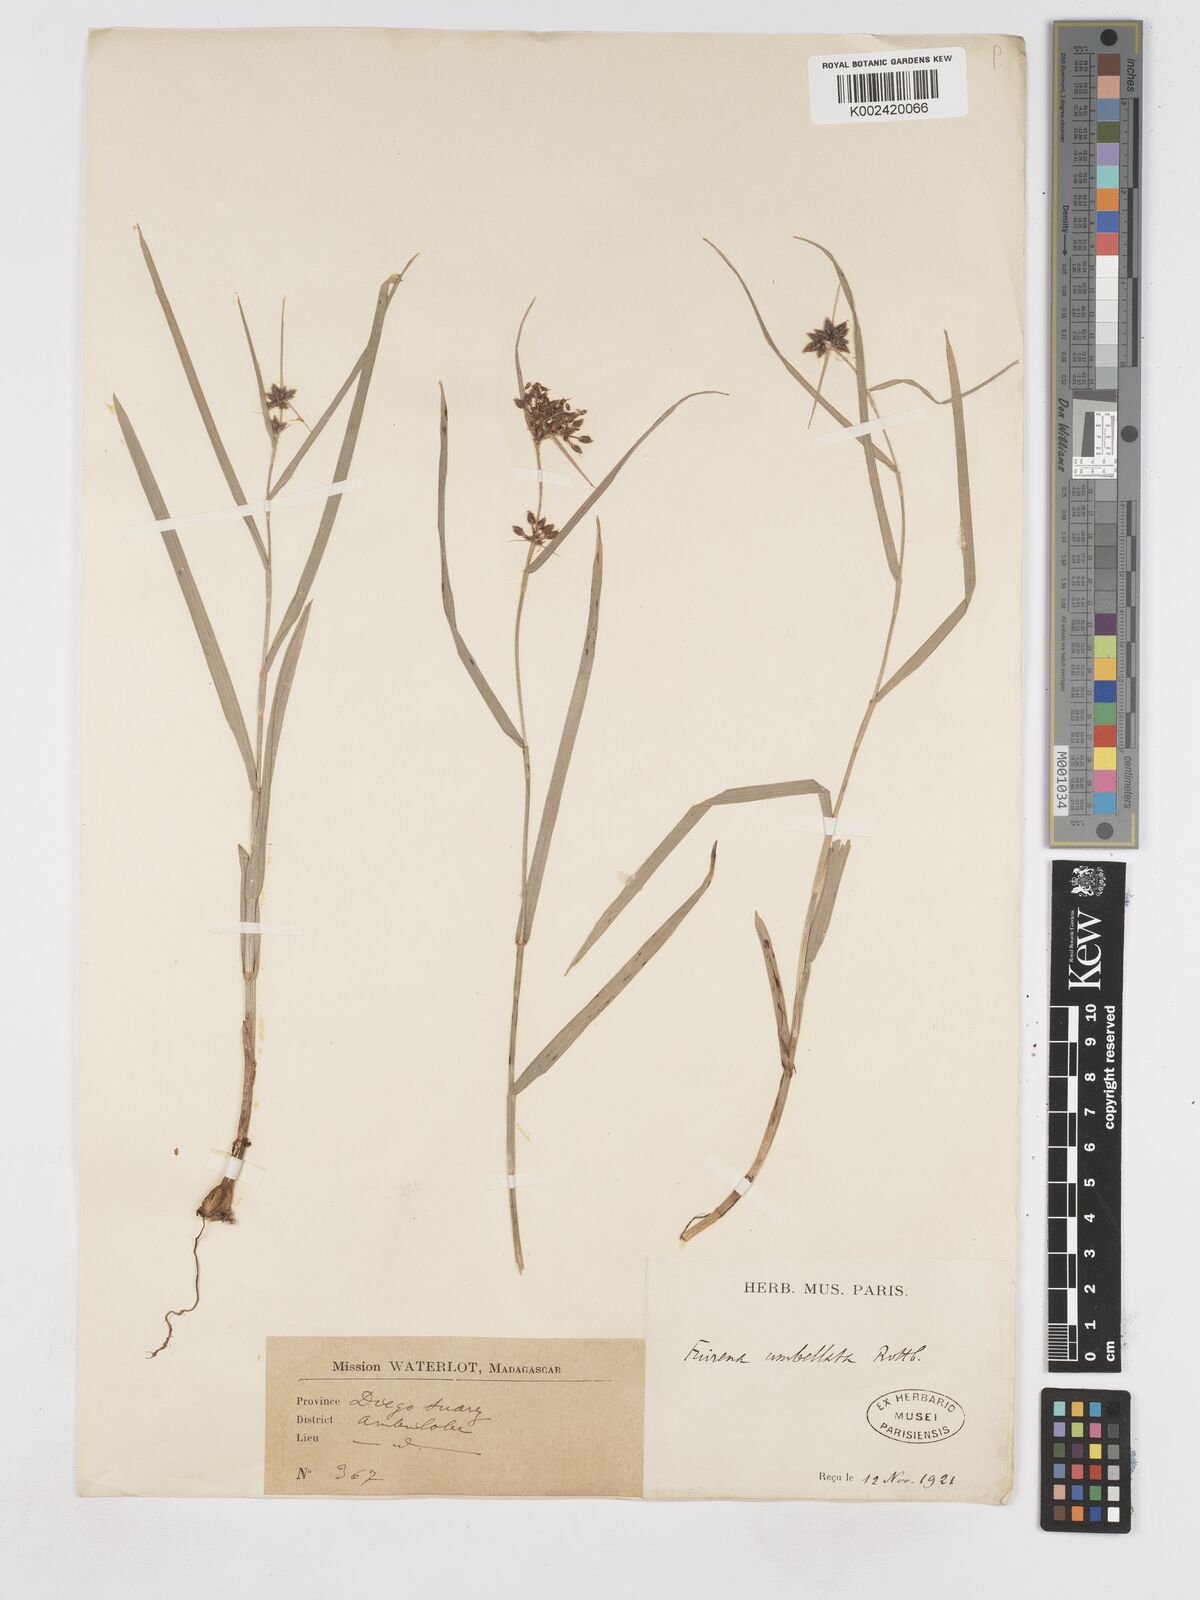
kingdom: Plantae
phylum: Tracheophyta
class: Liliopsida
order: Poales
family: Cyperaceae
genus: Fuirena
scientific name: Fuirena umbellata
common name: Yefen
